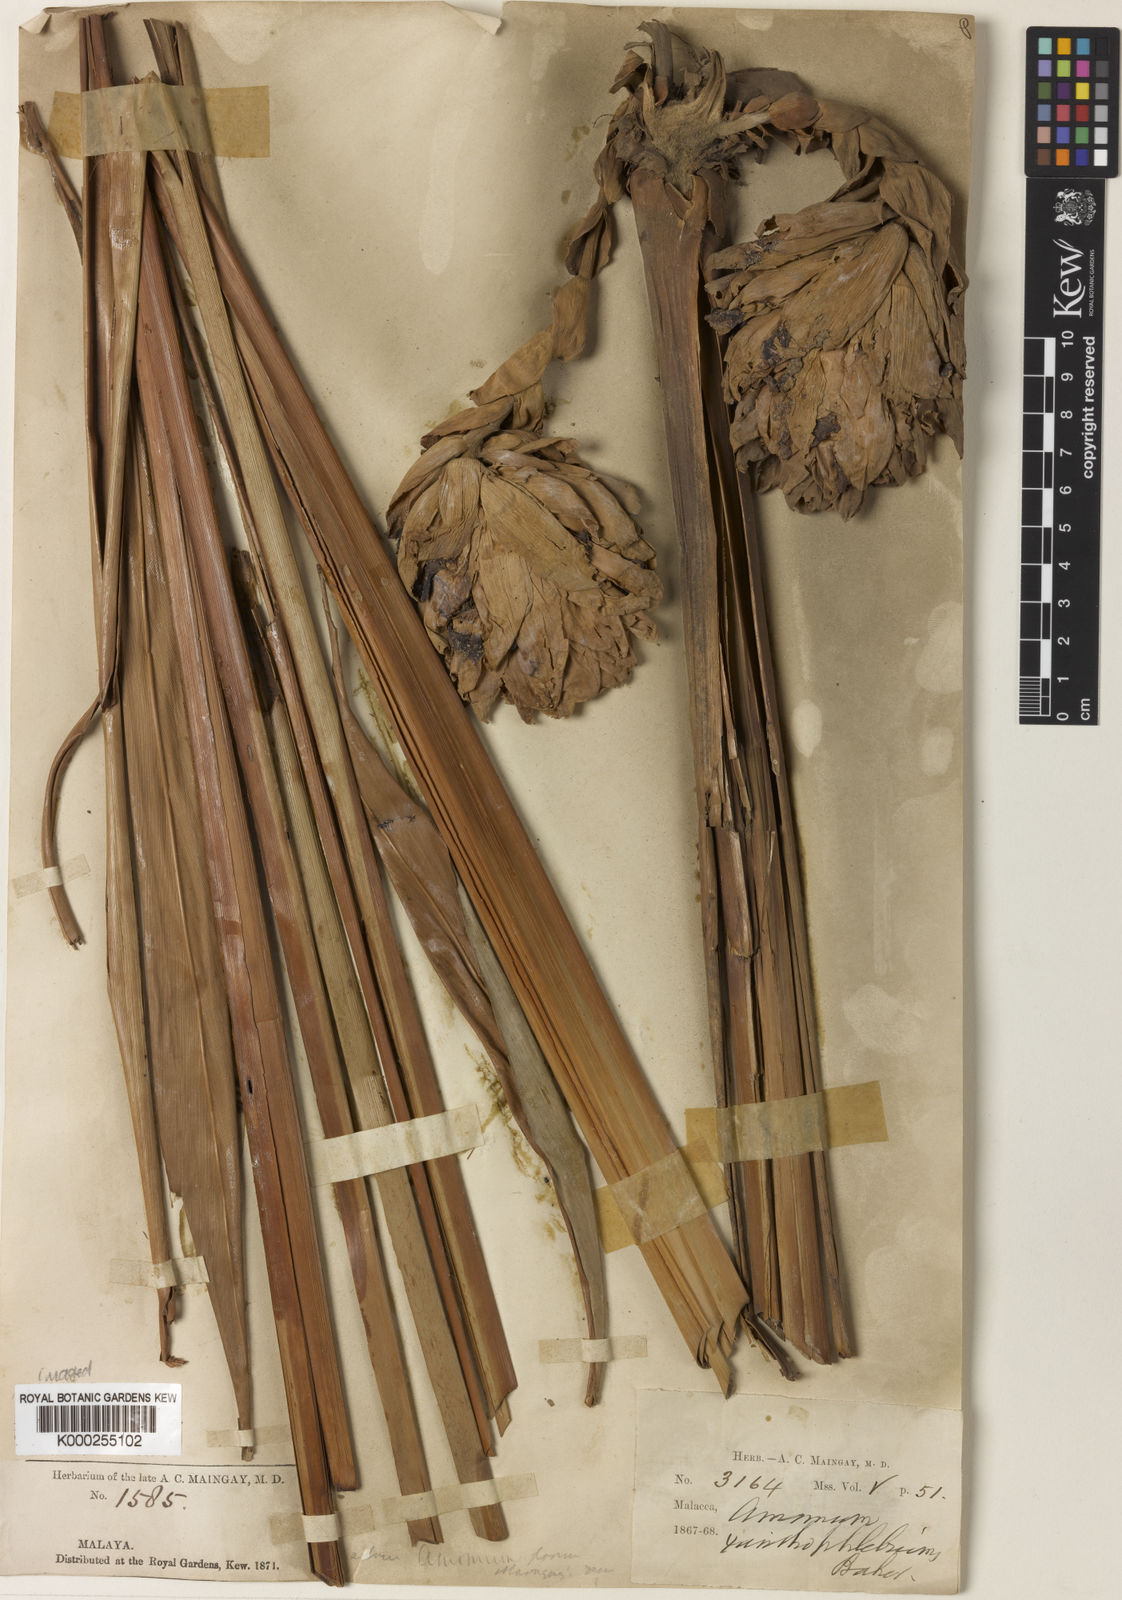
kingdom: Plantae
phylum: Tracheophyta
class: Liliopsida
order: Zingiberales
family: Zingiberaceae
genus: Conamomum
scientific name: Conamomum xanthophlebium
